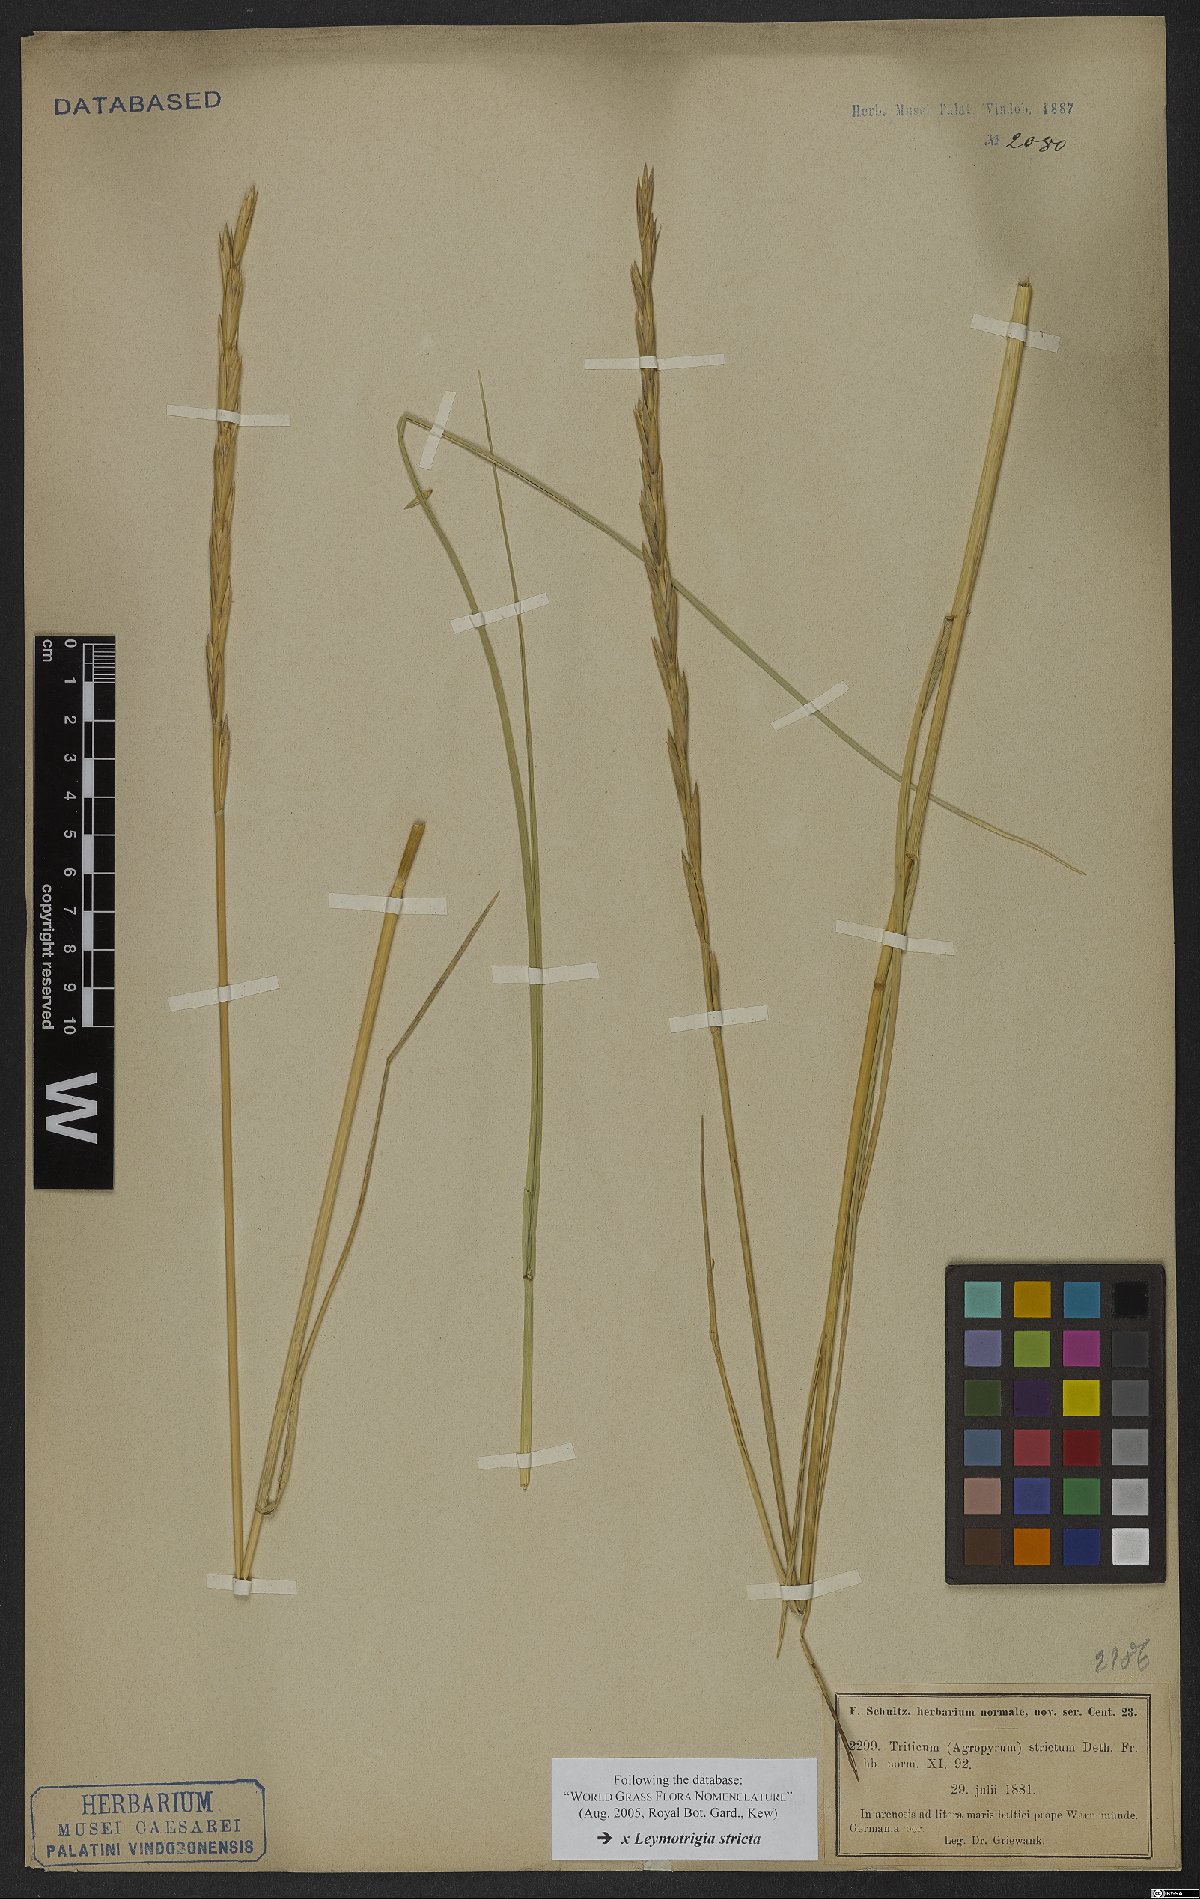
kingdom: Plantae
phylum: Tracheophyta
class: Liliopsida
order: Poales
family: Poaceae
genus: Elyleymus
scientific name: Elyleymus strictus
